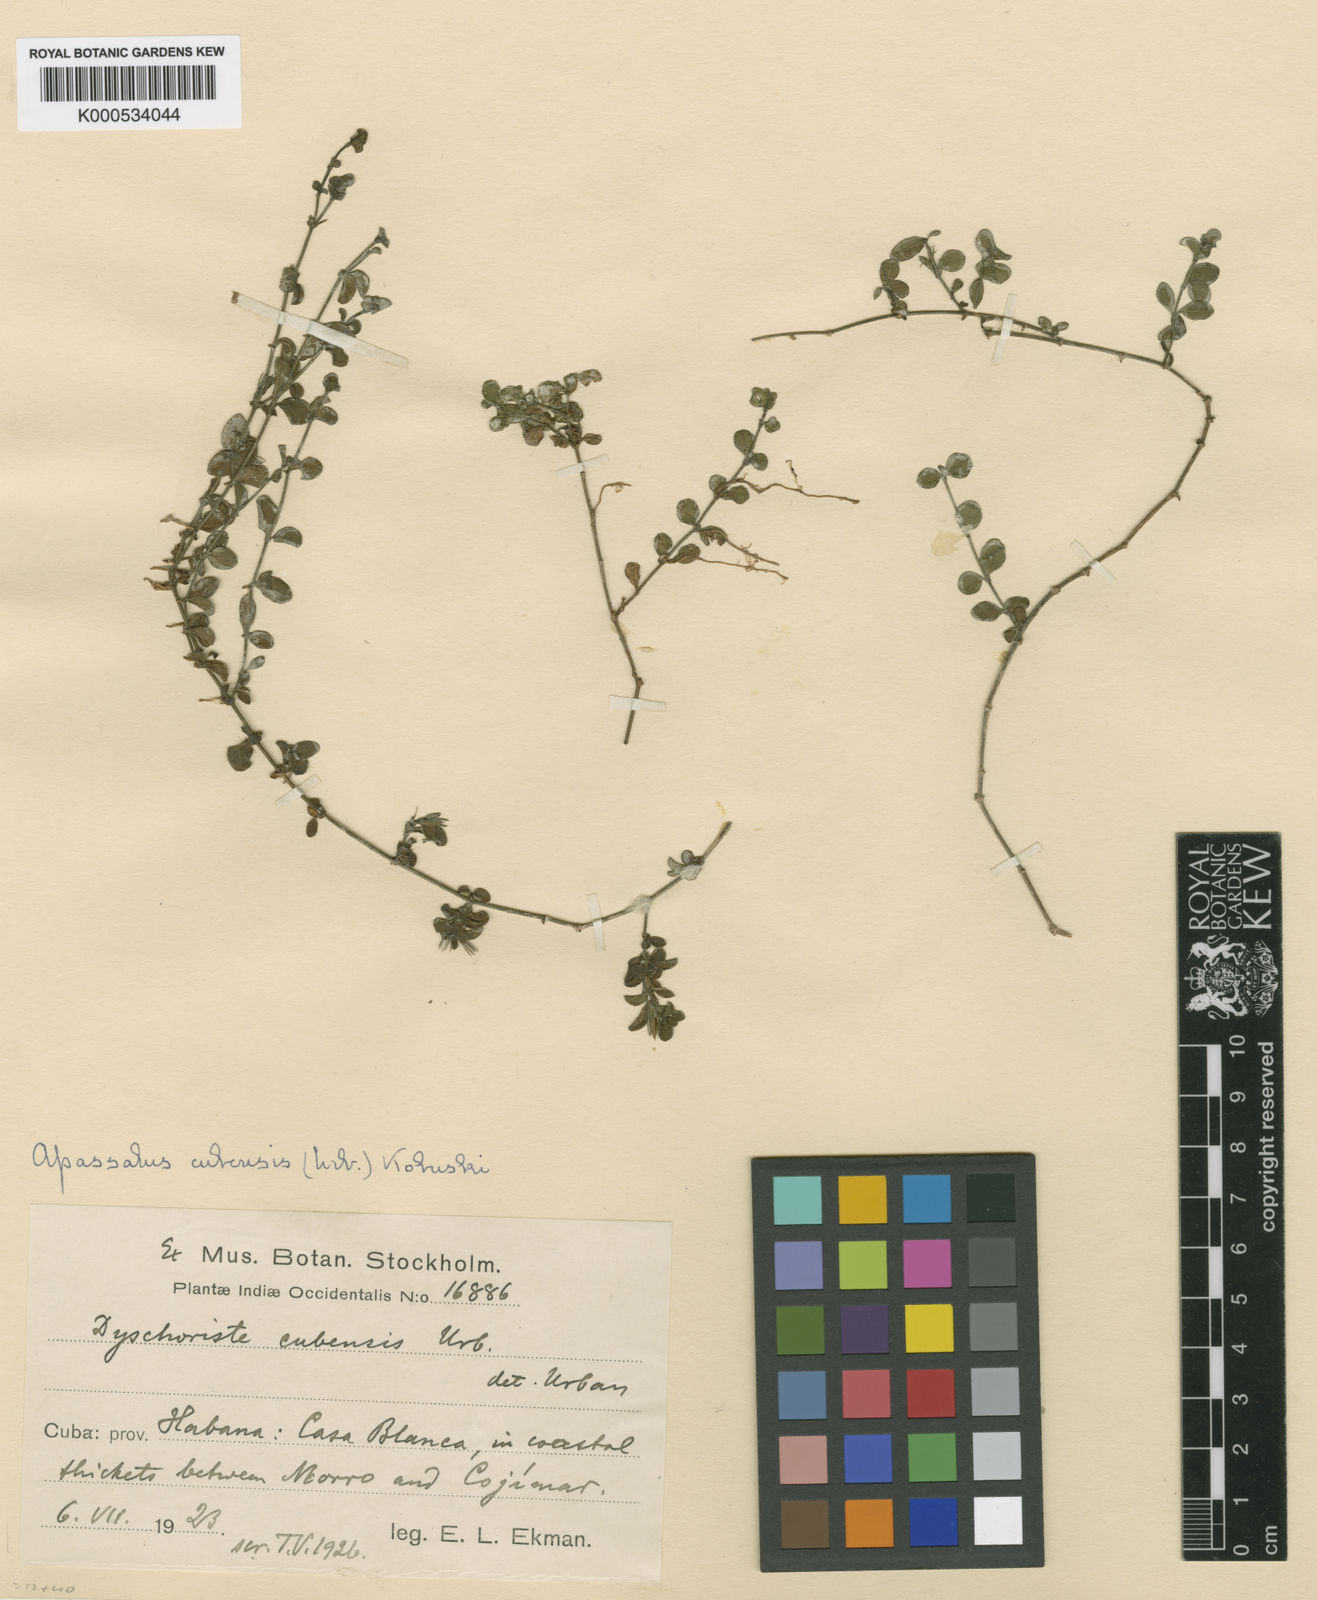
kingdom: Plantae
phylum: Tracheophyta
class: Magnoliopsida
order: Lamiales
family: Acanthaceae
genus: Dyschoriste
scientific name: Dyschoriste cubensis
